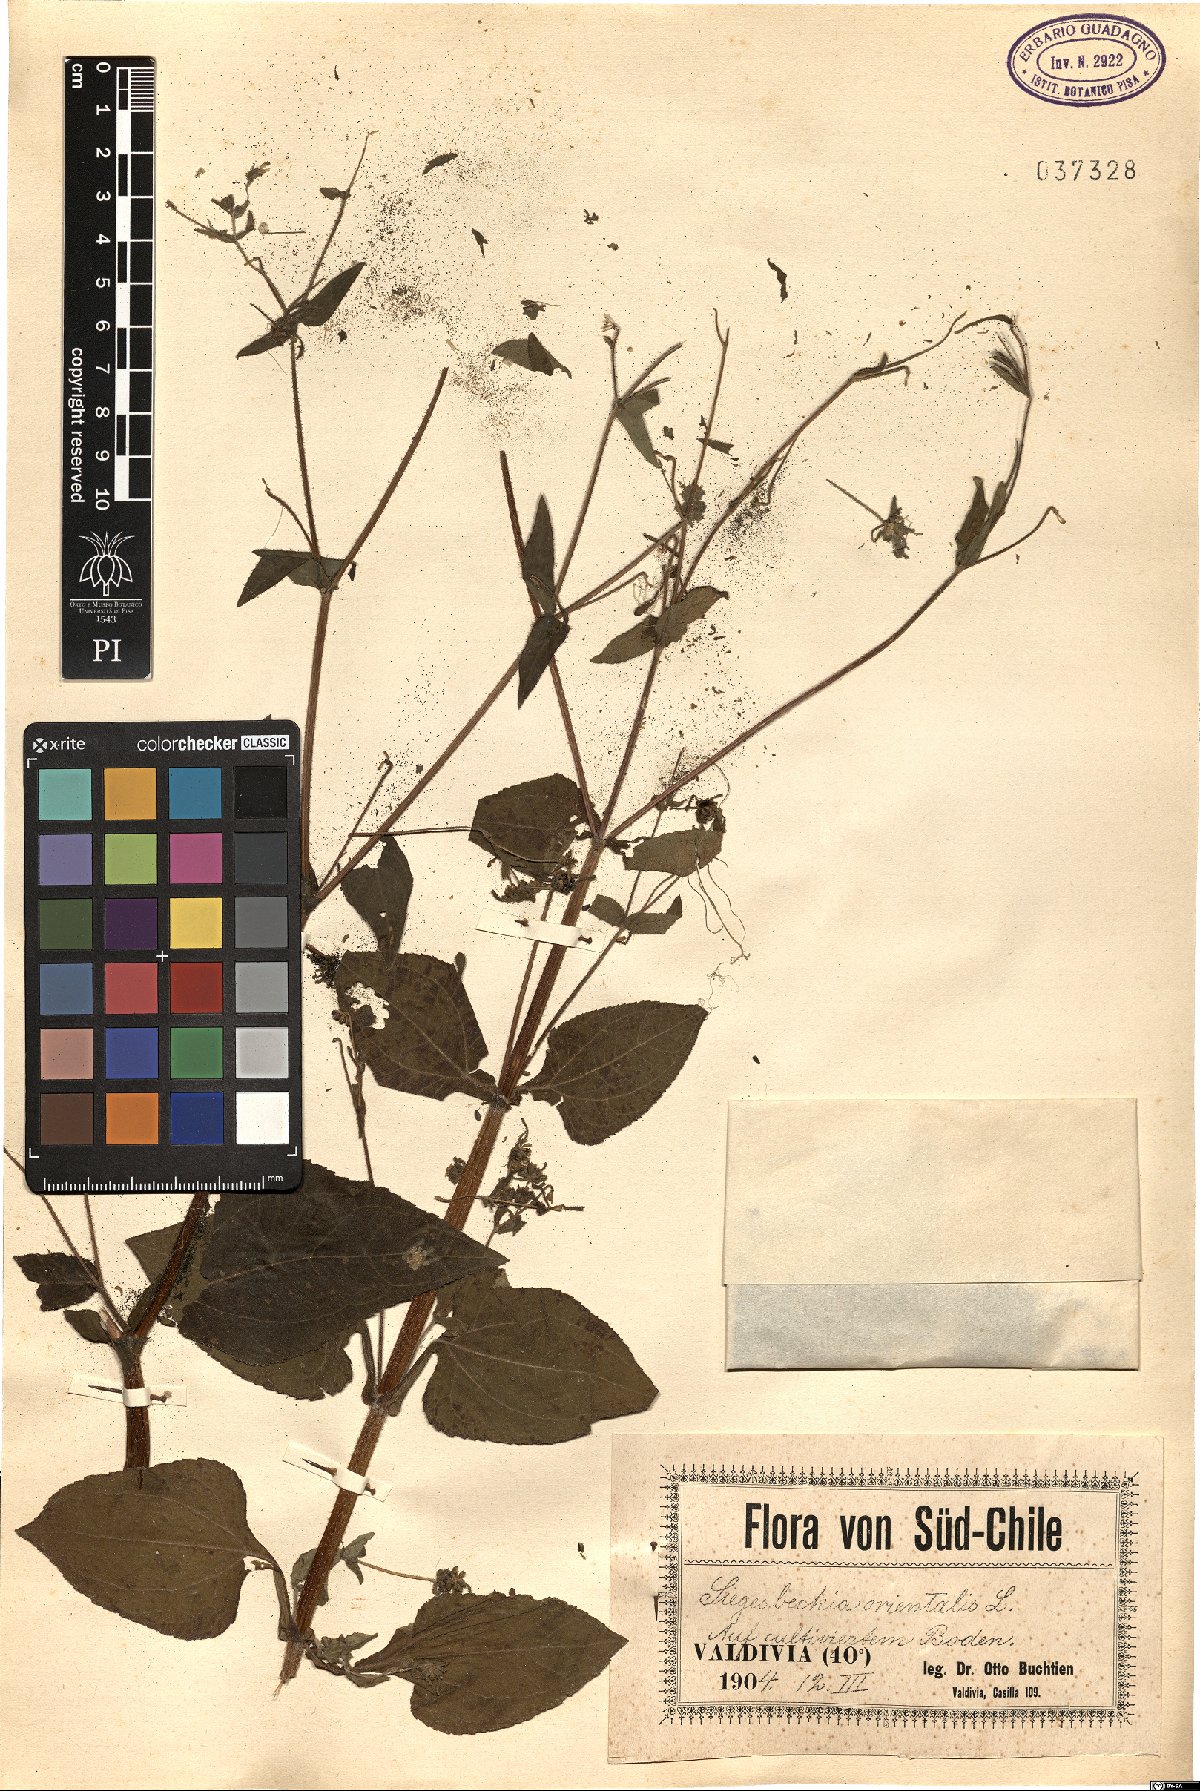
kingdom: Plantae
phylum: Tracheophyta
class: Magnoliopsida
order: Asterales
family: Asteraceae
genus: Sigesbeckia
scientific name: Sigesbeckia orientalis
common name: Eastern st paul's-wort
